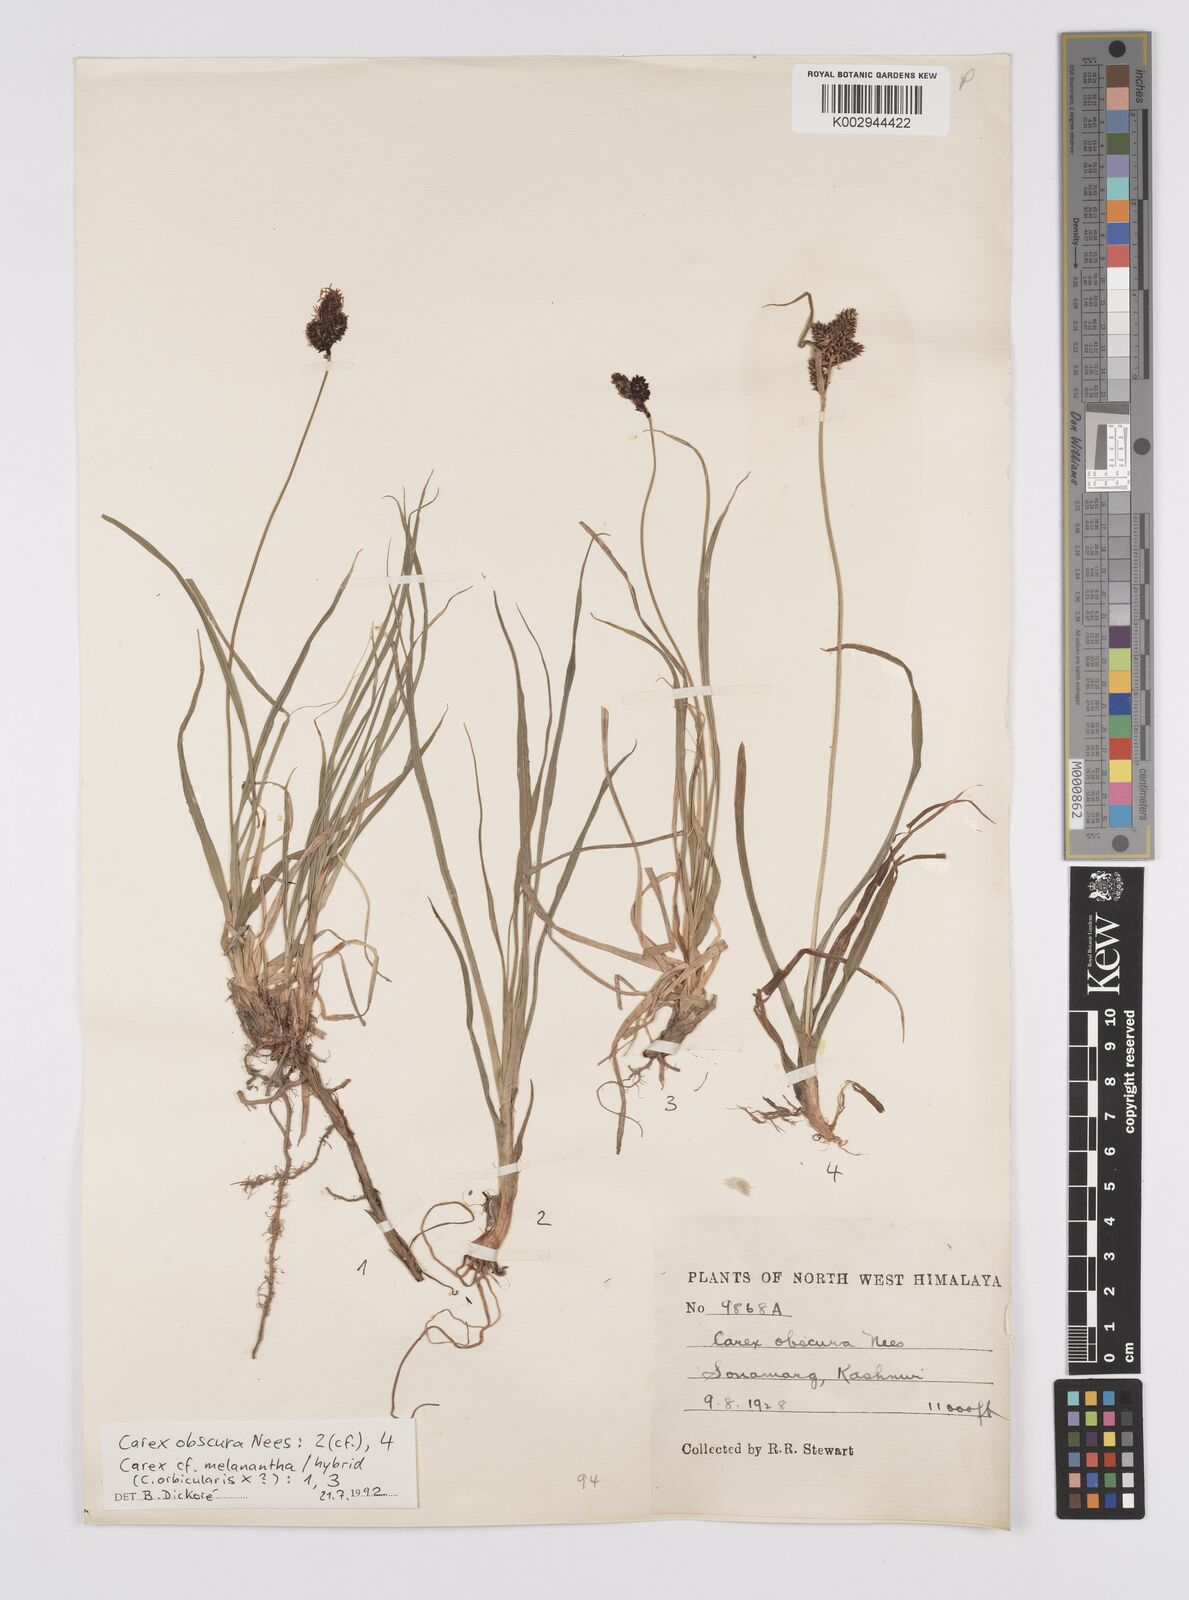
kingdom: Plantae
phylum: Tracheophyta
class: Liliopsida
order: Poales
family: Cyperaceae
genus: Carex
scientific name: Carex obscura
